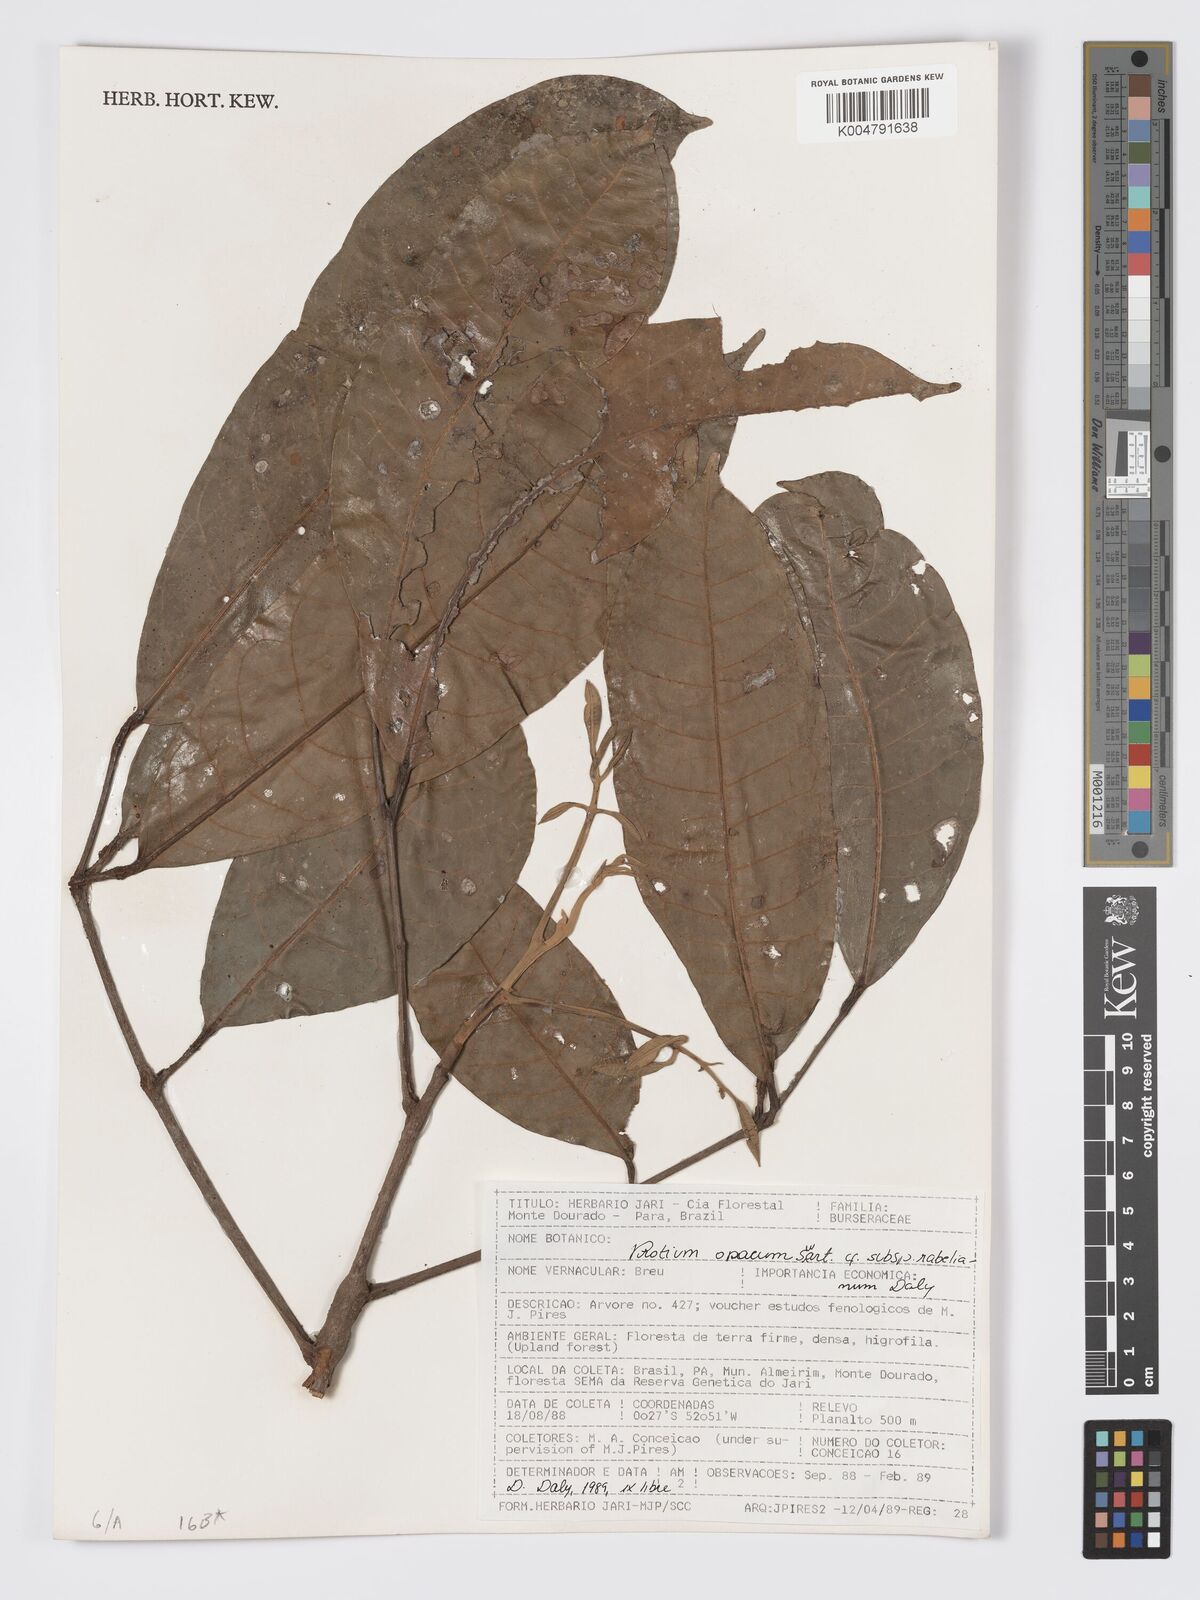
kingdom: Plantae
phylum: Tracheophyta
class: Magnoliopsida
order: Sapindales
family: Burseraceae
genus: Protium
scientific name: Protium opacum
